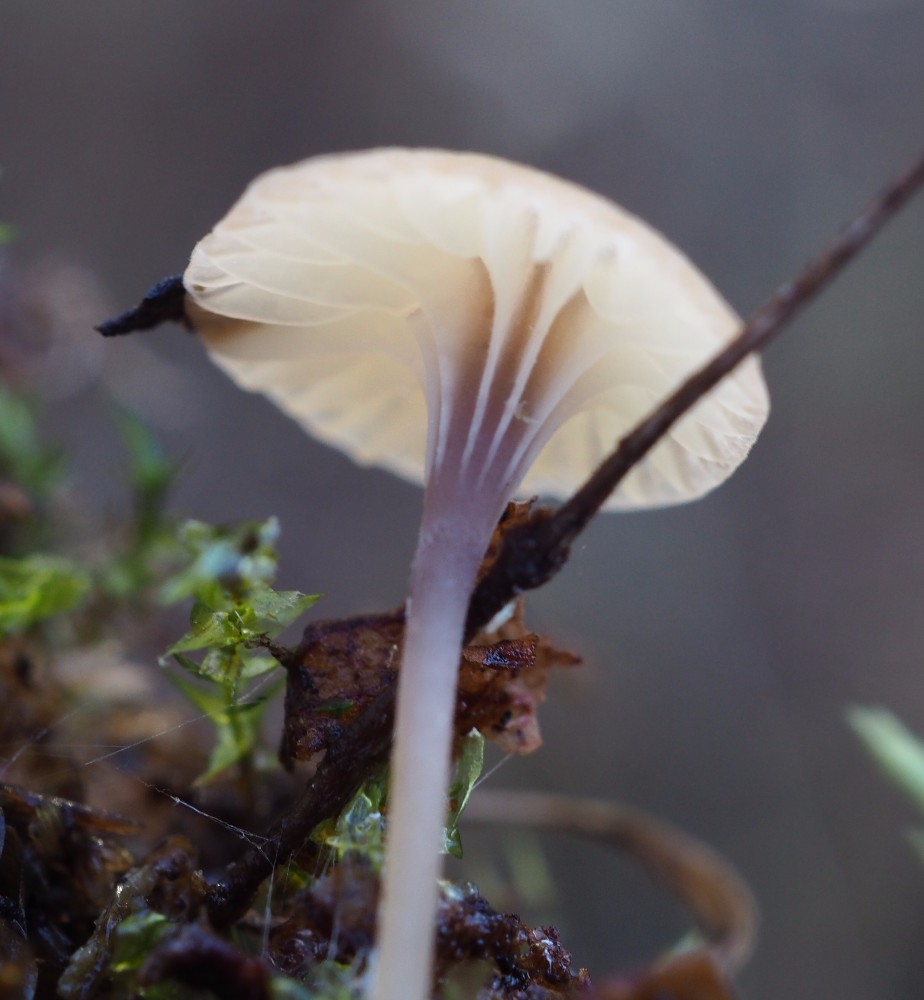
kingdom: Fungi
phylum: Basidiomycota
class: Agaricomycetes
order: Hymenochaetales
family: Rickenellaceae
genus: Rickenella
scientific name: Rickenella swartzii
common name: finstokket mosnavlehat
